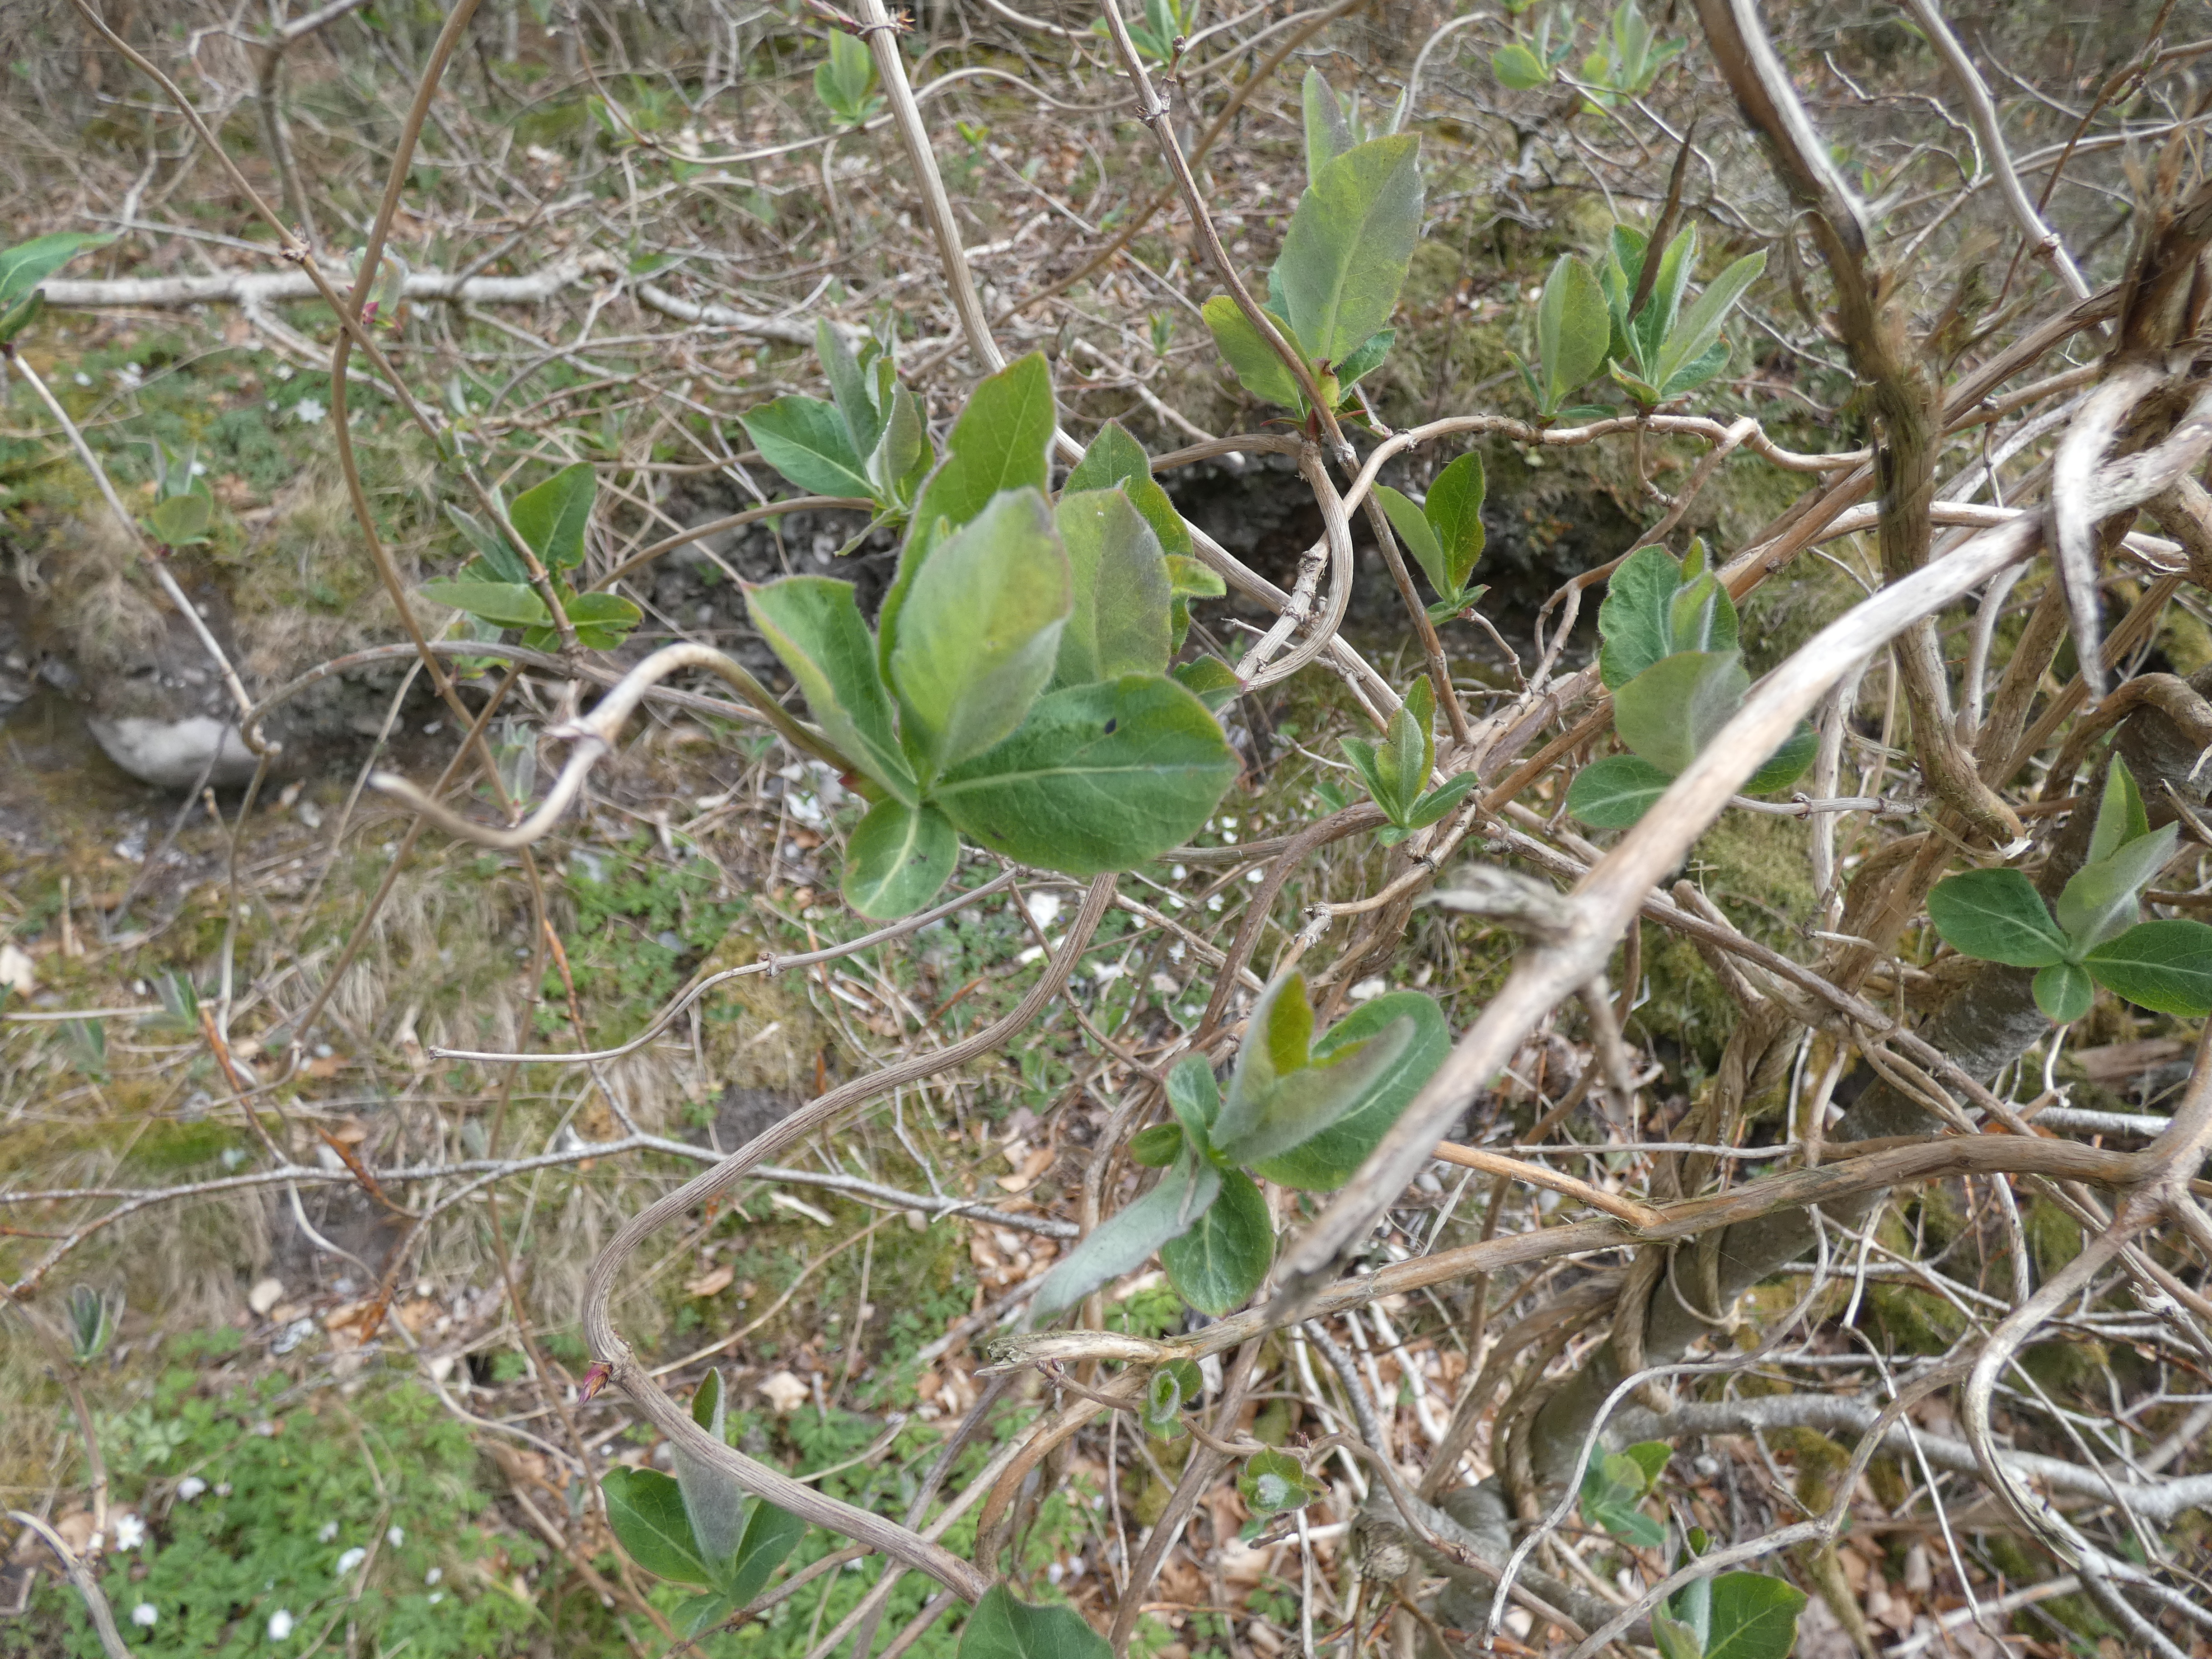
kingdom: Plantae
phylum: Tracheophyta
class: Magnoliopsida
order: Dipsacales
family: Caprifoliaceae
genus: Lonicera
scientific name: Lonicera periclymenum
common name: Almindelig gedeblad
